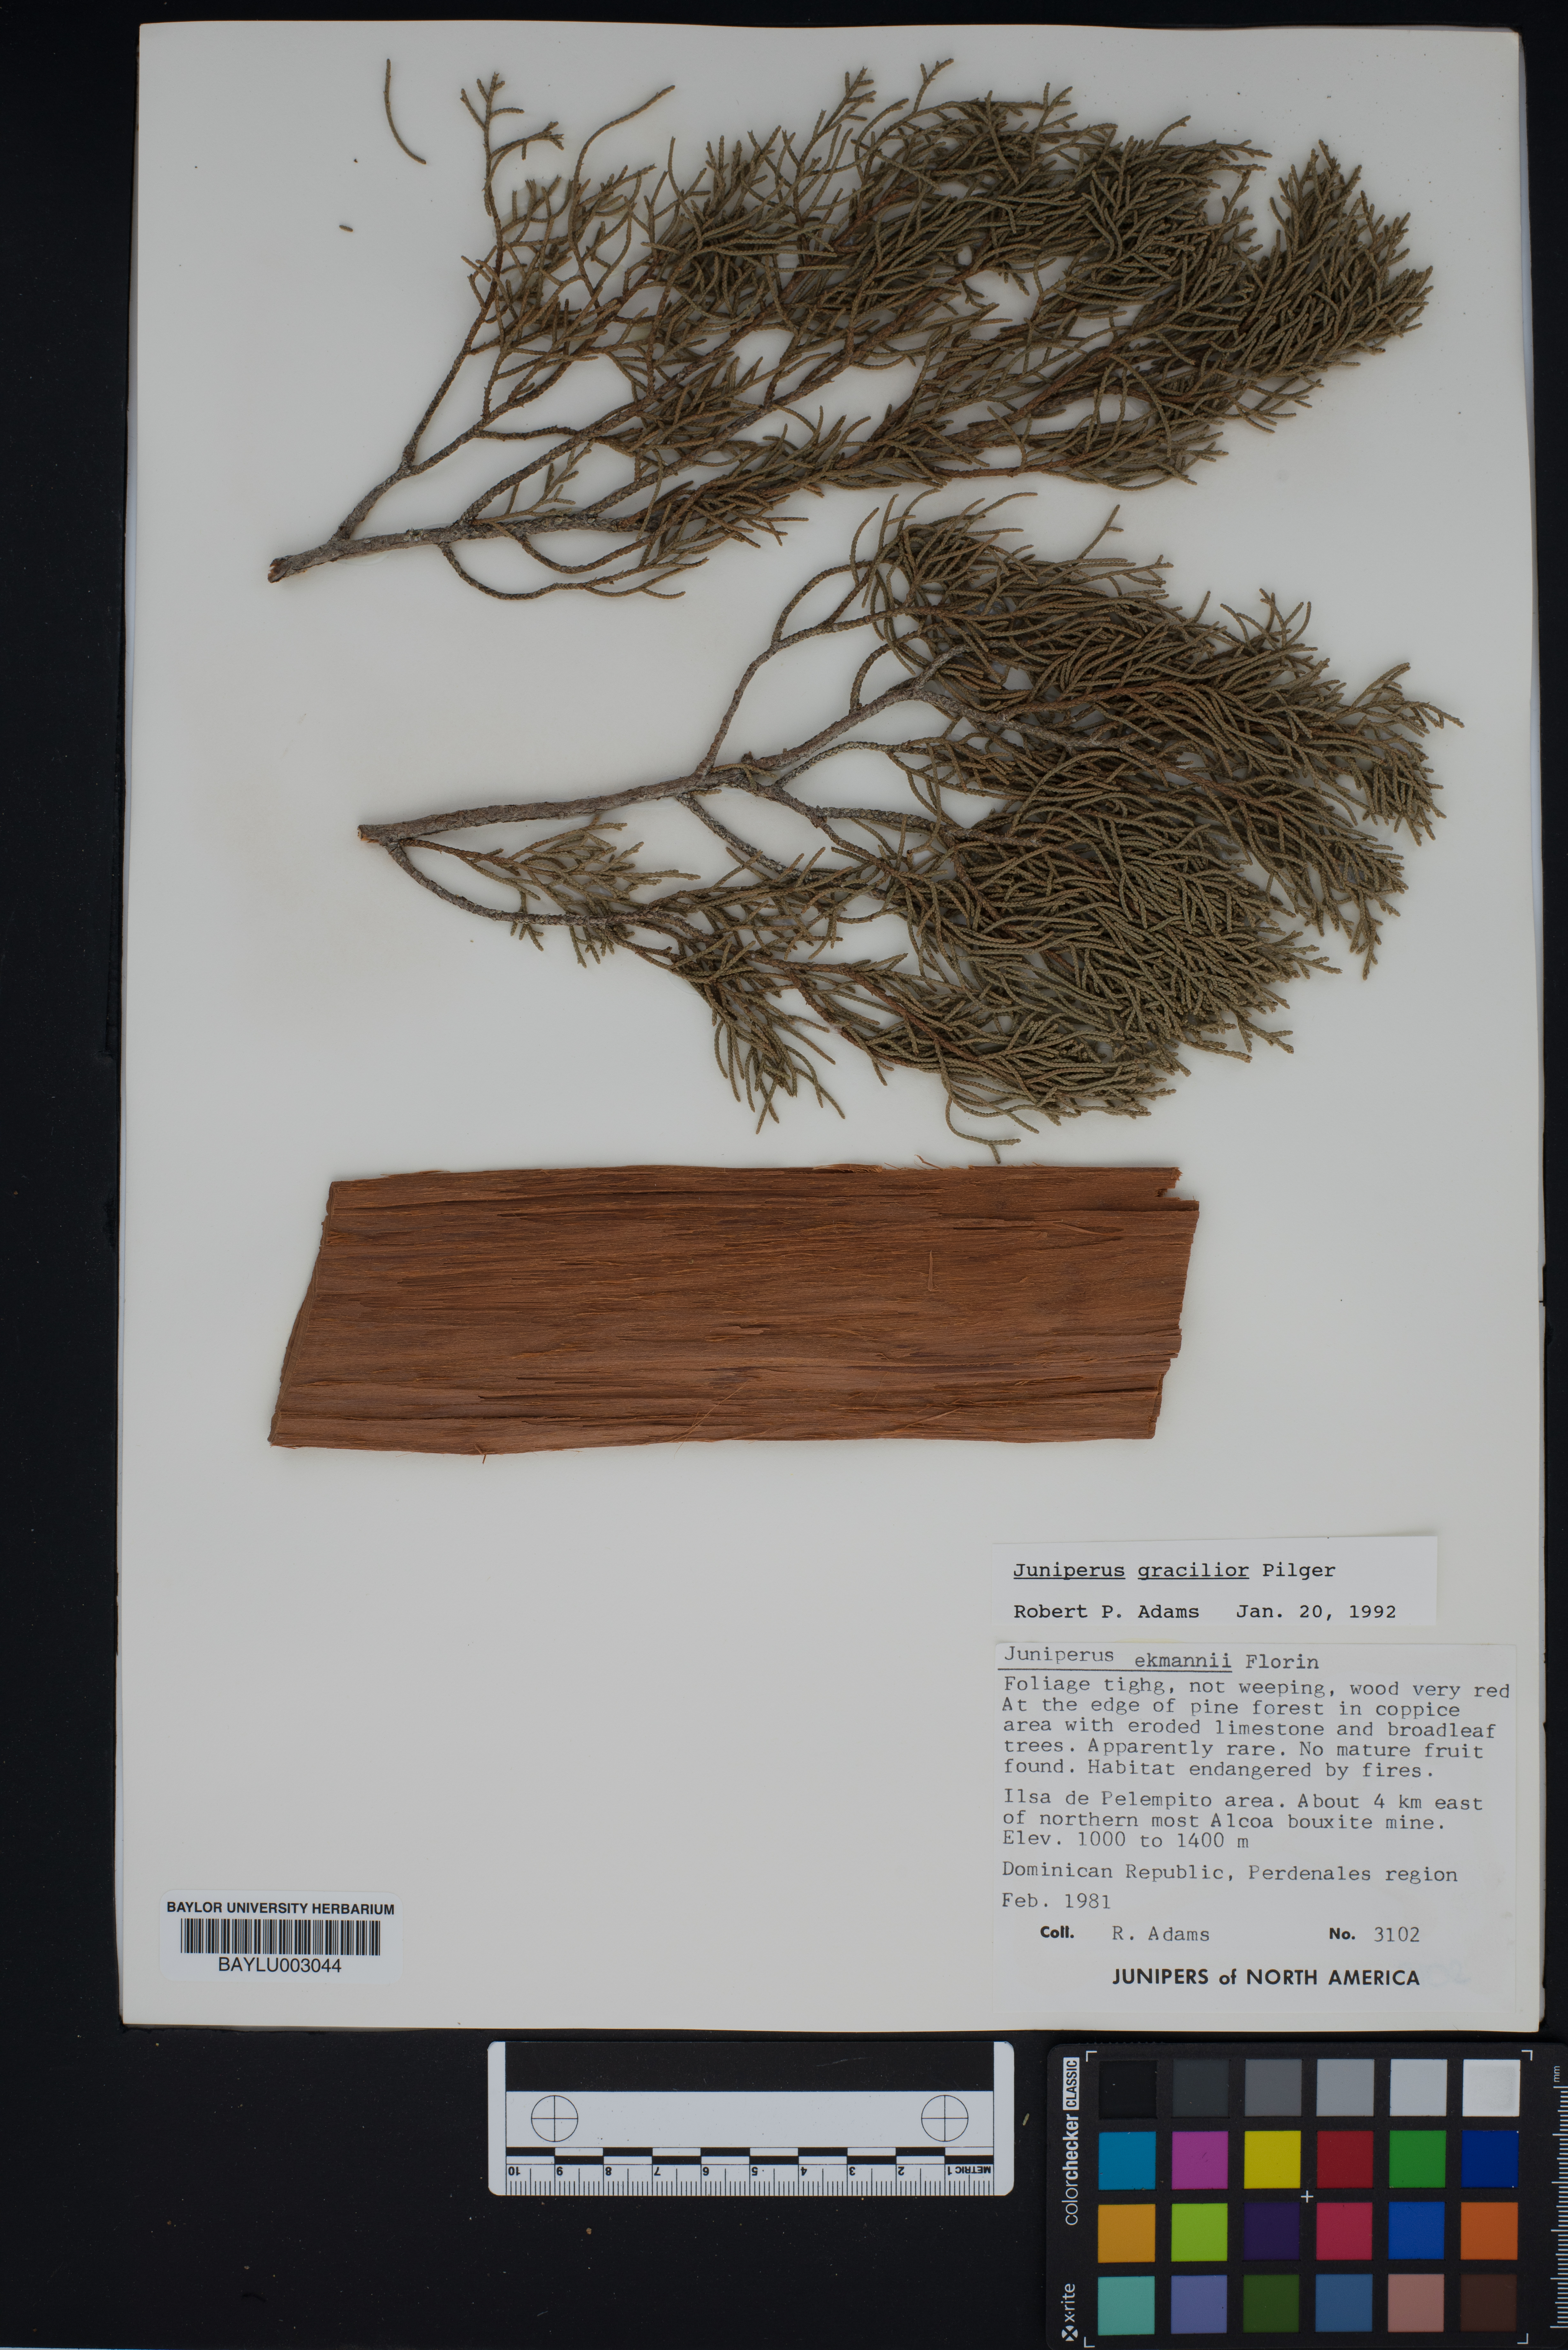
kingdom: Plantae
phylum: Tracheophyta
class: Pinopsida
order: Pinales
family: Cupressaceae
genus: Juniperus
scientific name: Juniperus gracilior
